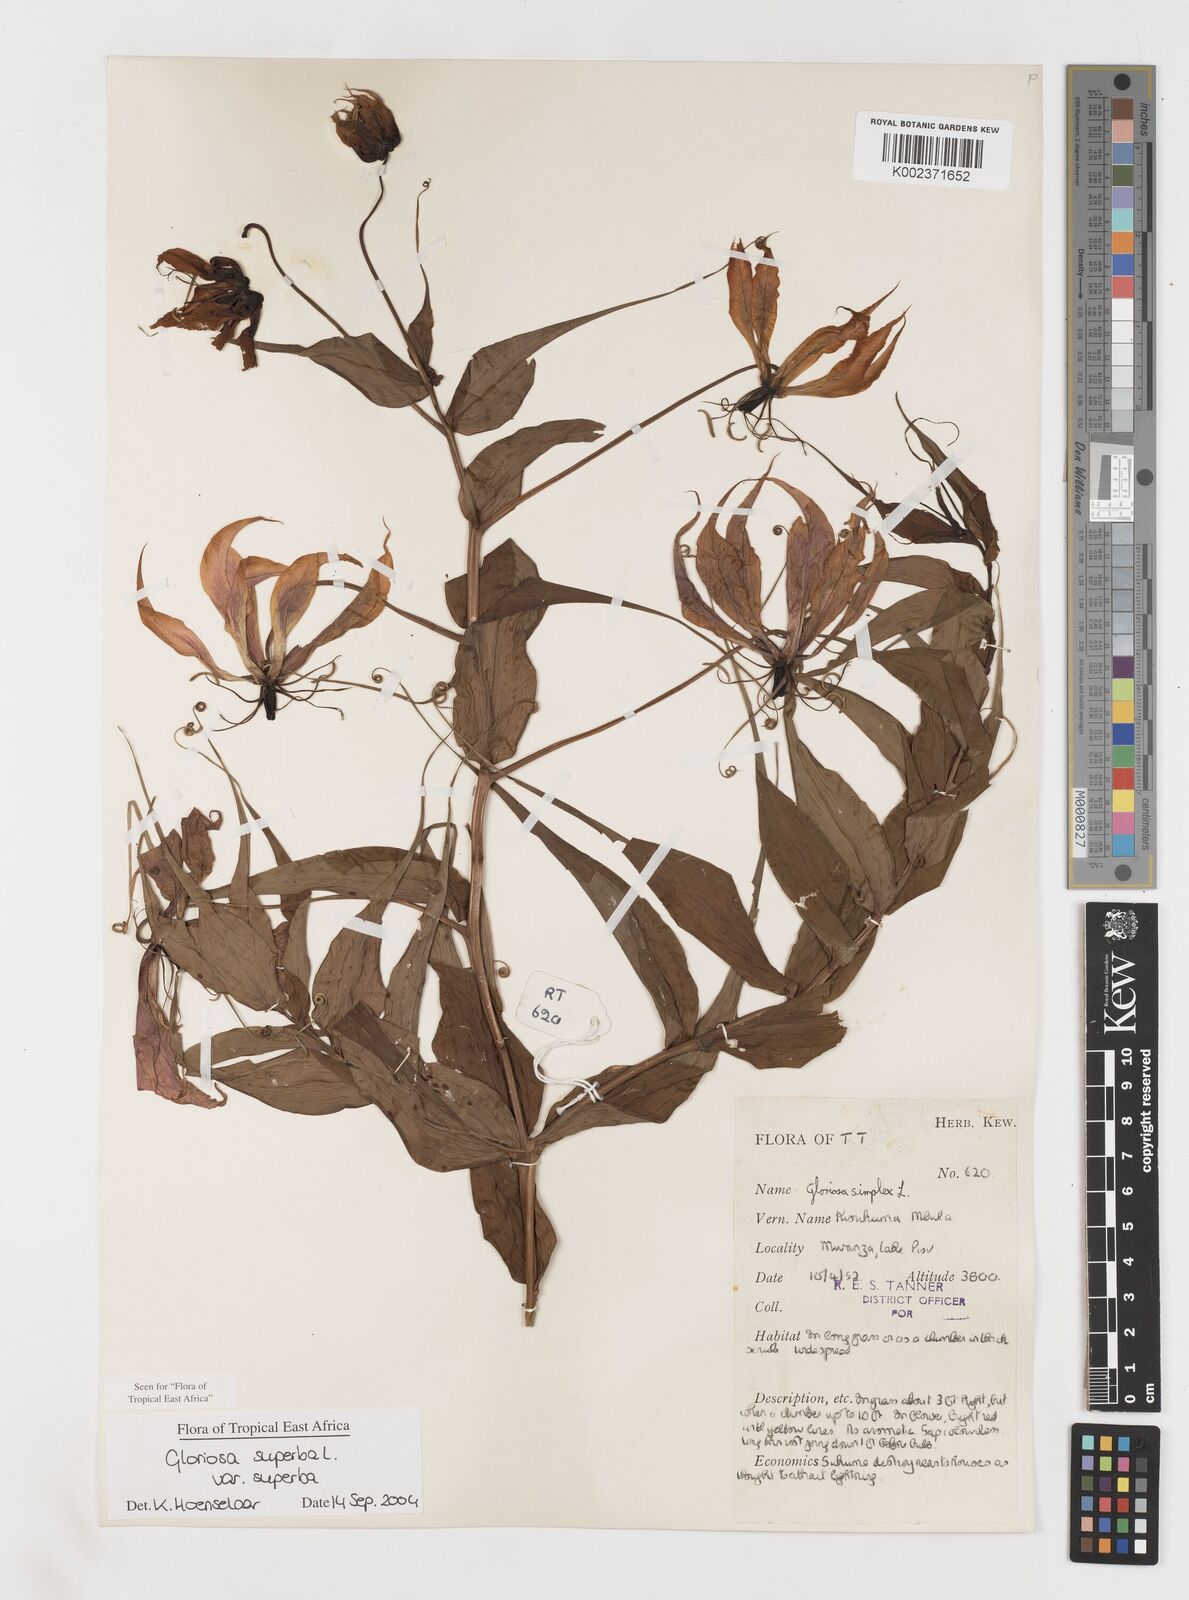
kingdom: Plantae
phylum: Tracheophyta
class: Liliopsida
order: Liliales
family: Colchicaceae
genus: Gloriosa
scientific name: Gloriosa simplex
